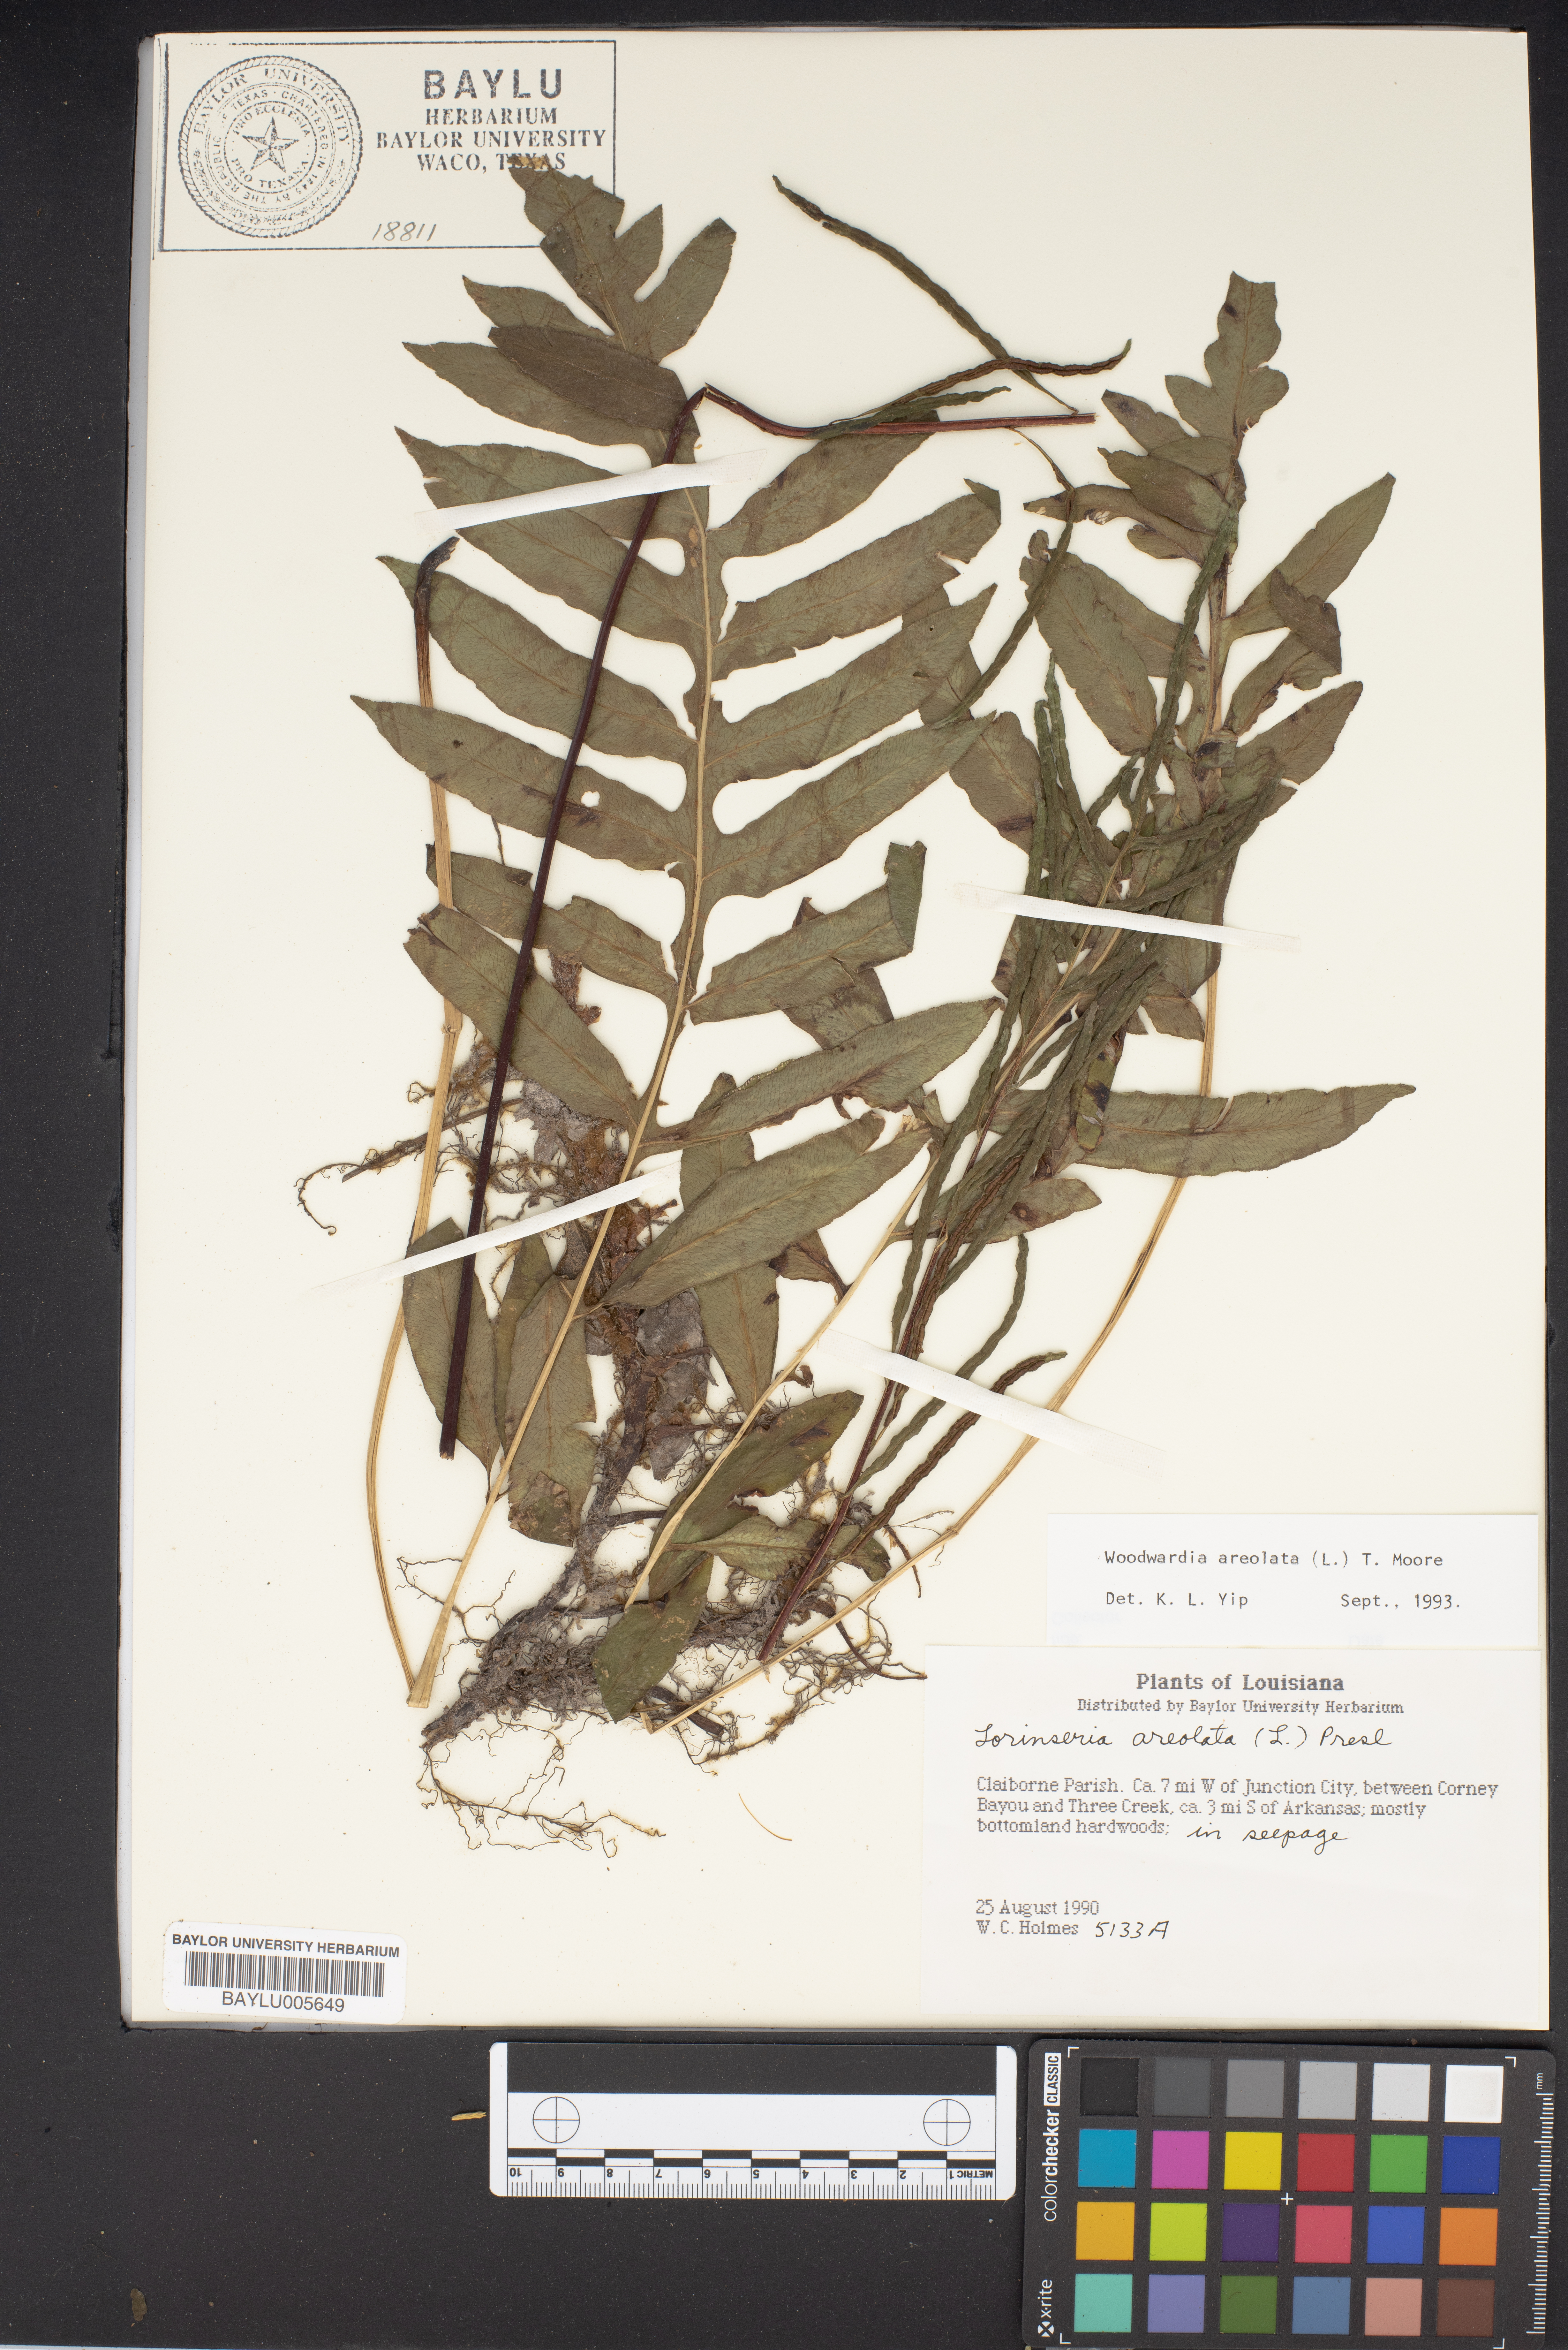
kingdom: Plantae
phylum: Tracheophyta
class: Polypodiopsida
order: Polypodiales
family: Blechnaceae
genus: Lorinseria
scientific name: Lorinseria areolata
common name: Dwarf chain fern
